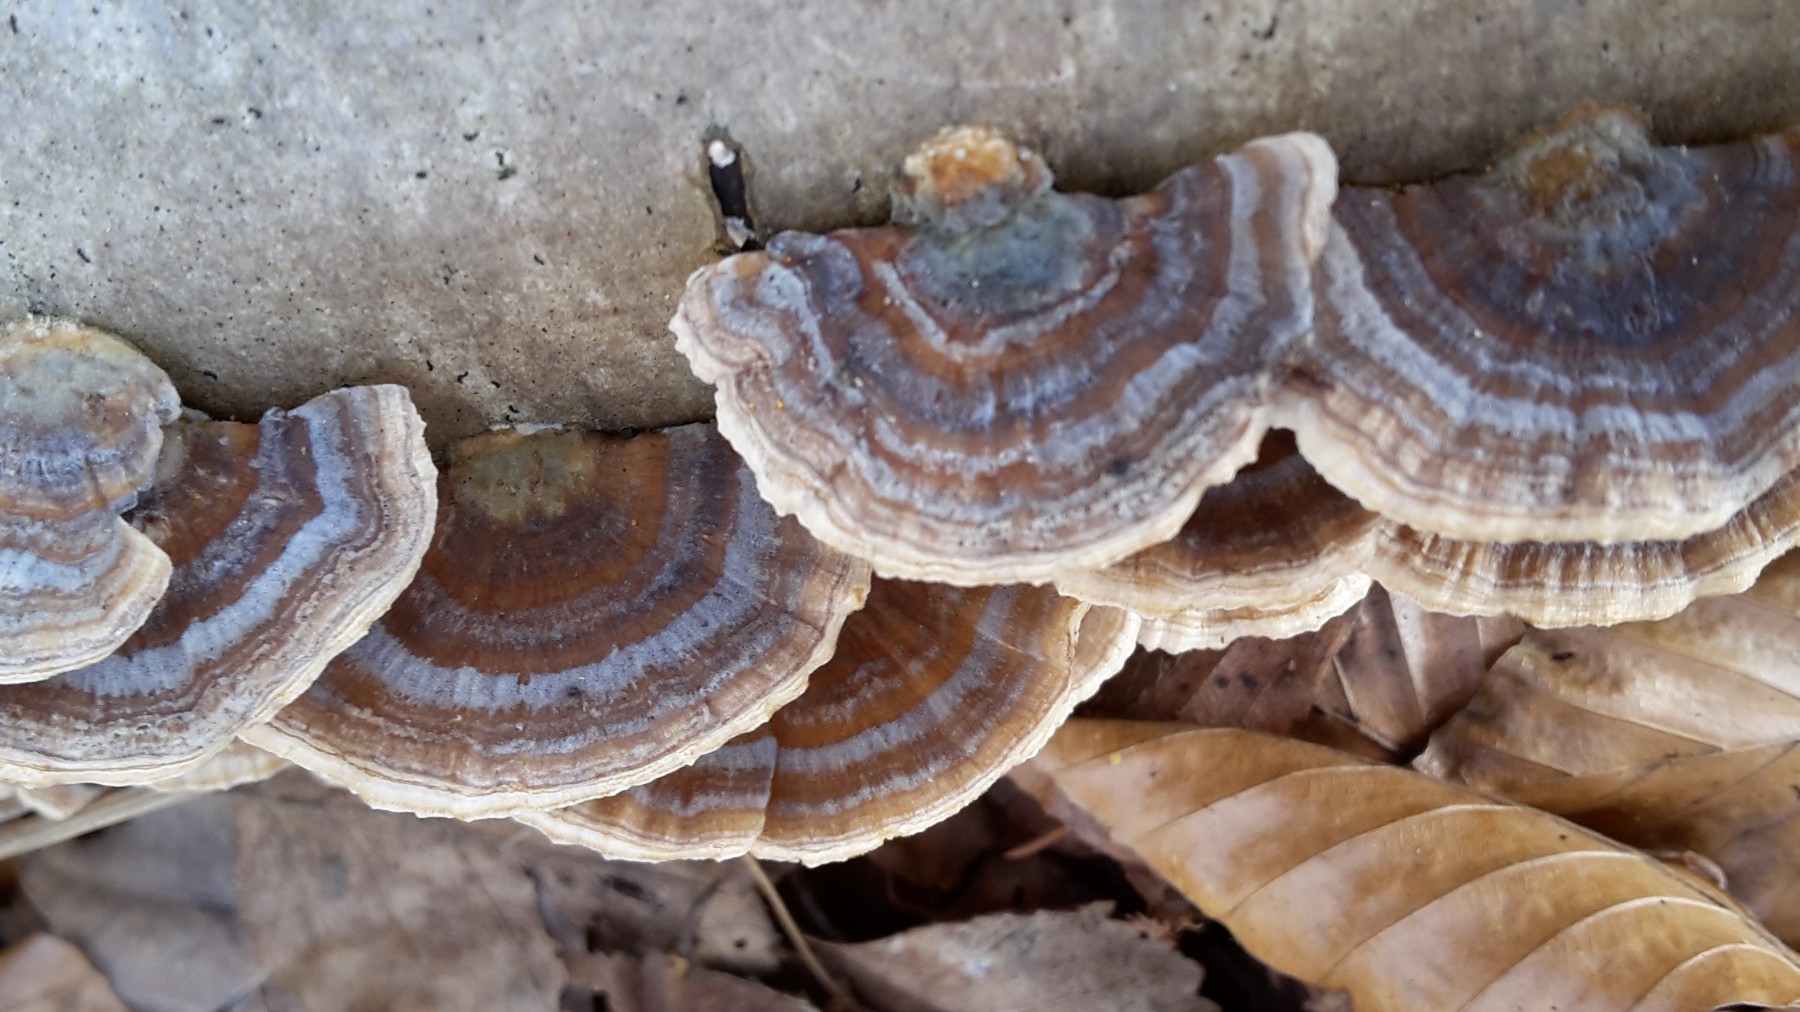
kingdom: Fungi
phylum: Basidiomycota
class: Agaricomycetes
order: Polyporales
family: Polyporaceae
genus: Trametes
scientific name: Trametes versicolor
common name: broget læderporesvamp
